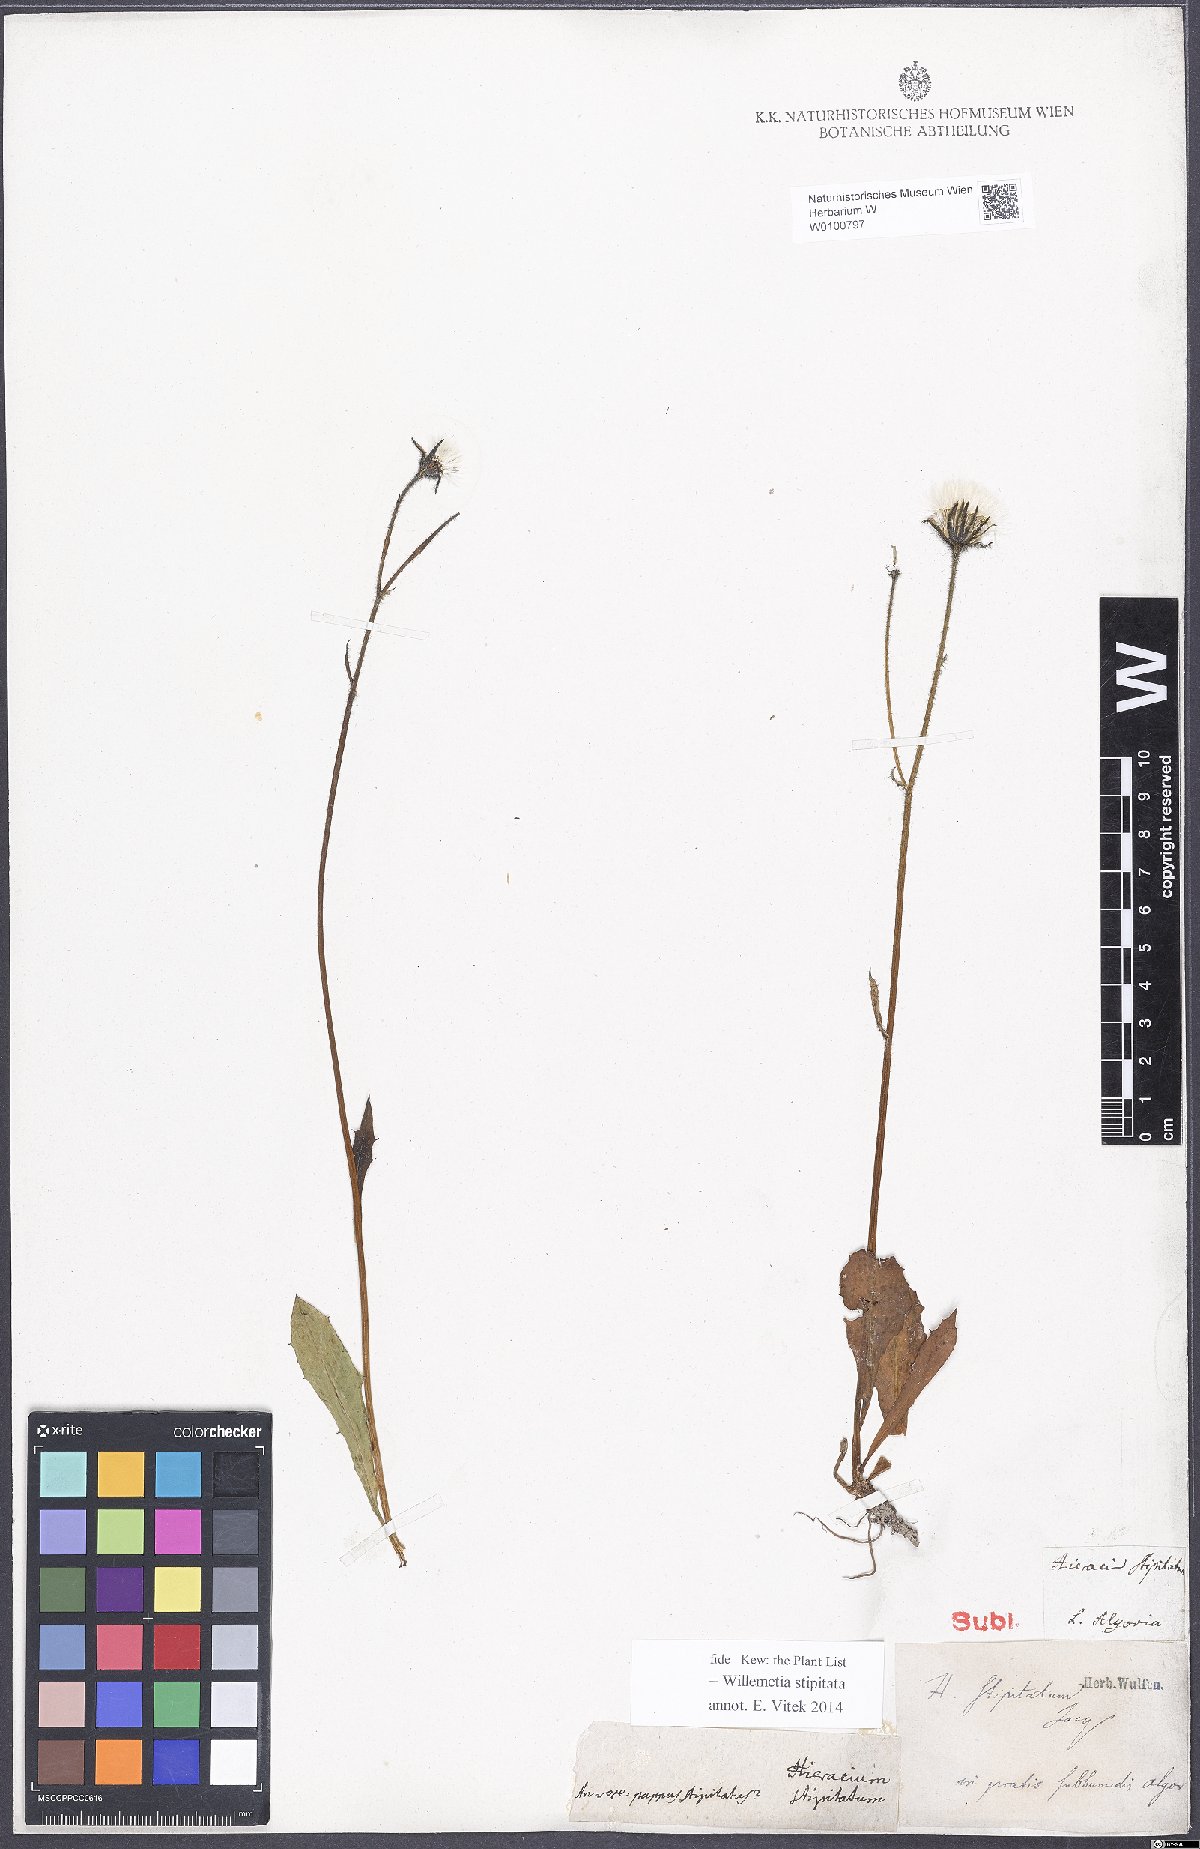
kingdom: Plantae
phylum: Tracheophyta
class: Magnoliopsida
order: Asterales
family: Asteraceae
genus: Willemetia
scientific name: Willemetia stipitata
